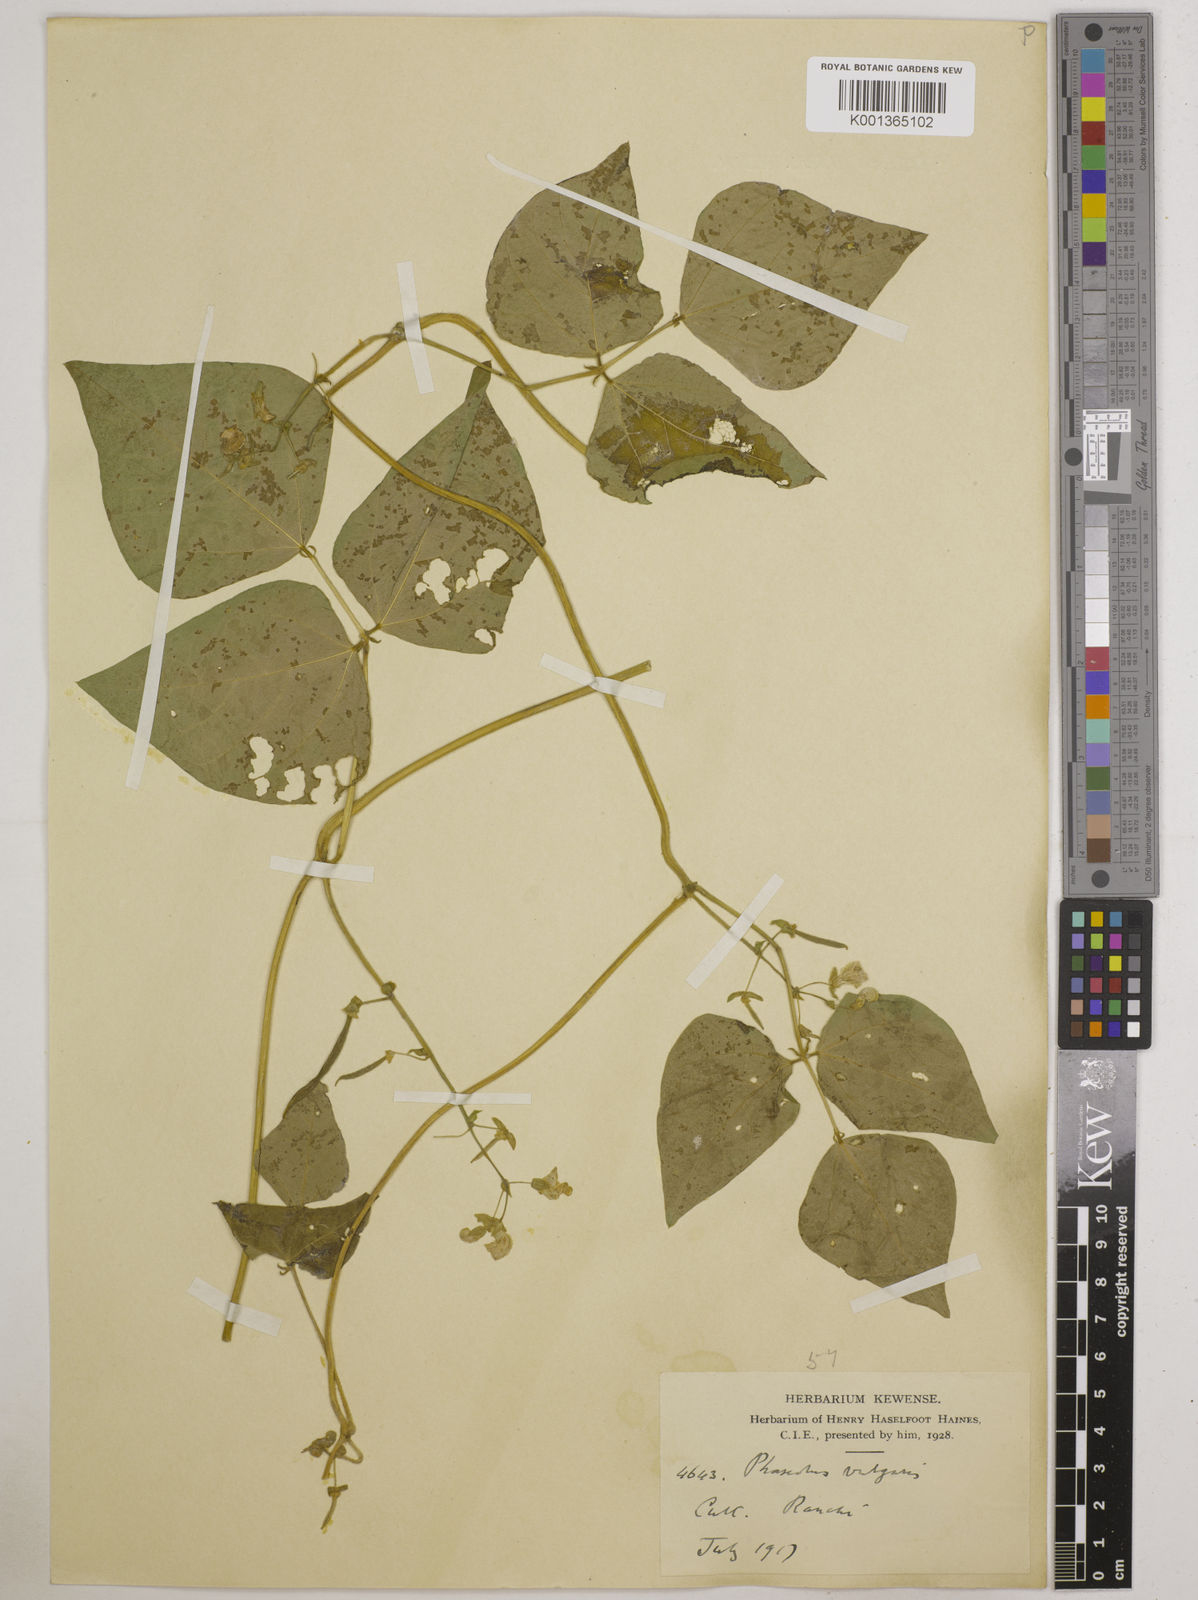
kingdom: Plantae
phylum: Tracheophyta
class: Magnoliopsida
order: Fabales
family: Fabaceae
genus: Phaseolus
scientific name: Phaseolus vulgaris
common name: Bean
